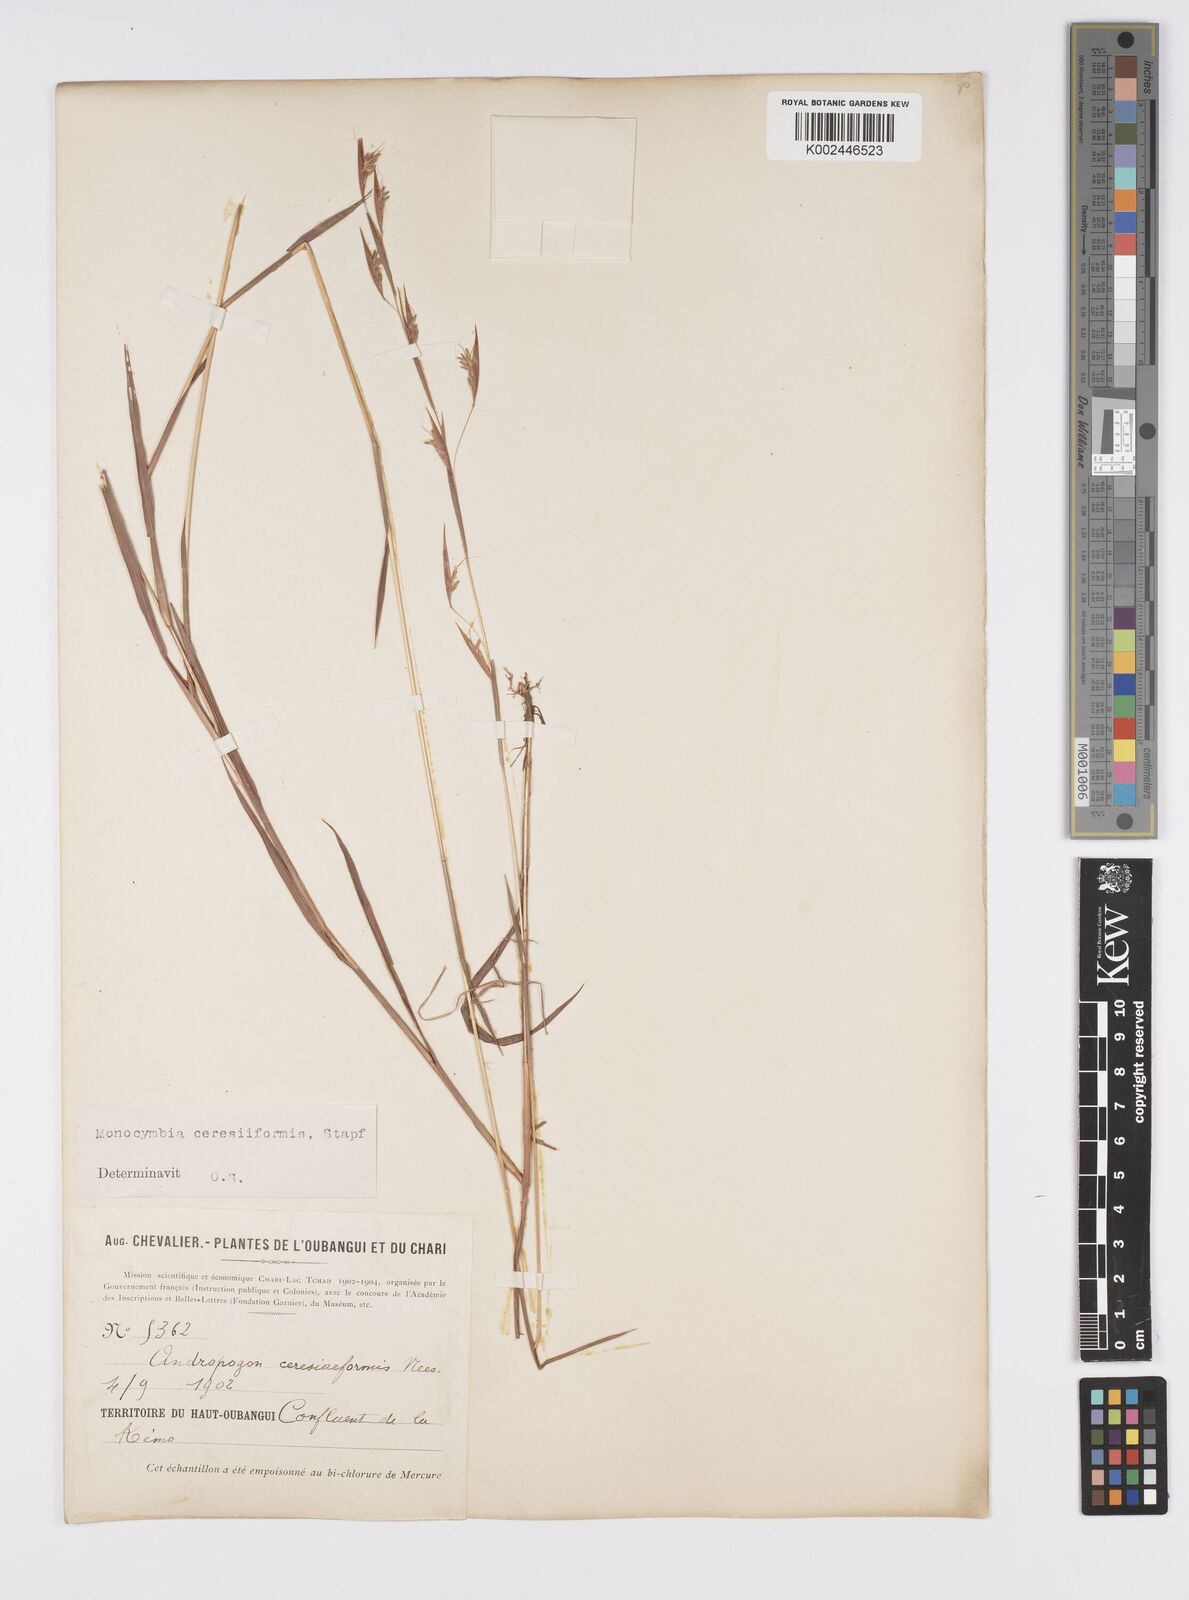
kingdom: Plantae
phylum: Tracheophyta
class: Liliopsida
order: Poales
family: Poaceae
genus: Monocymbium
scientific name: Monocymbium ceresiiforme
